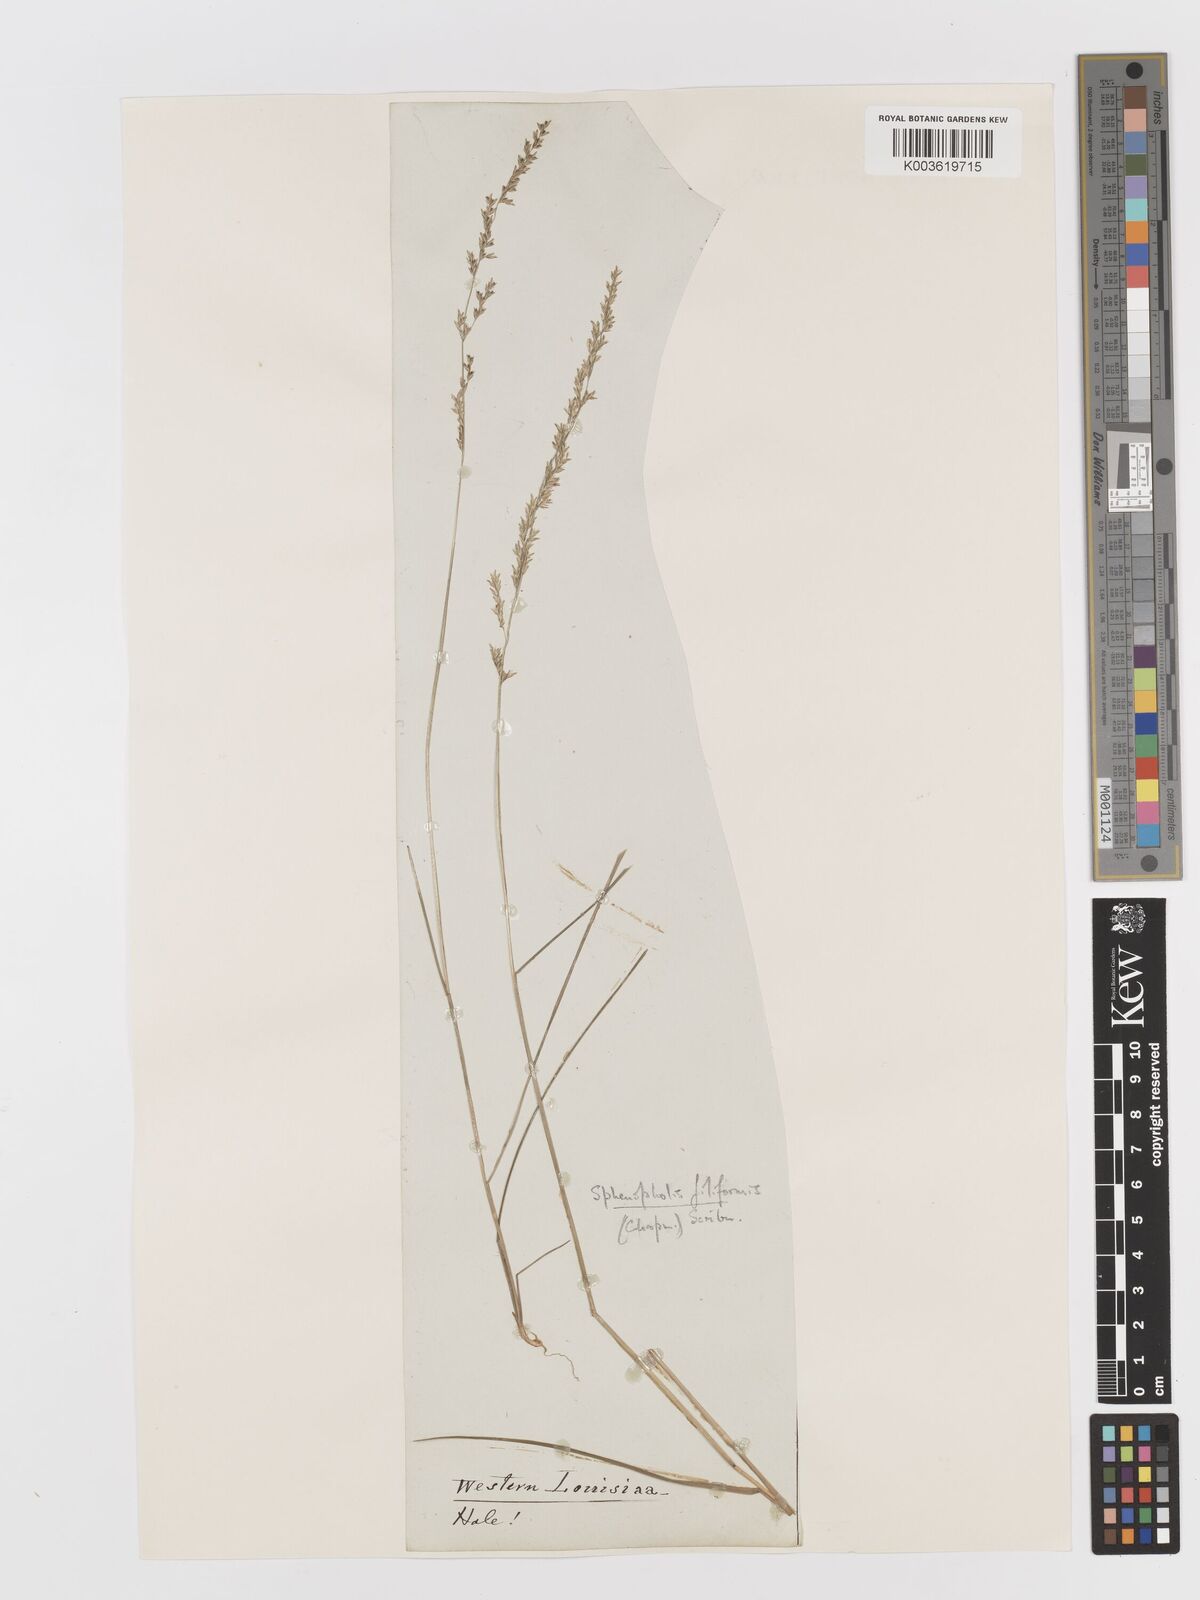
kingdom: Plantae
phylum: Tracheophyta
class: Liliopsida
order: Poales
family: Poaceae
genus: Sphenopholis
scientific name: Sphenopholis filiformis
